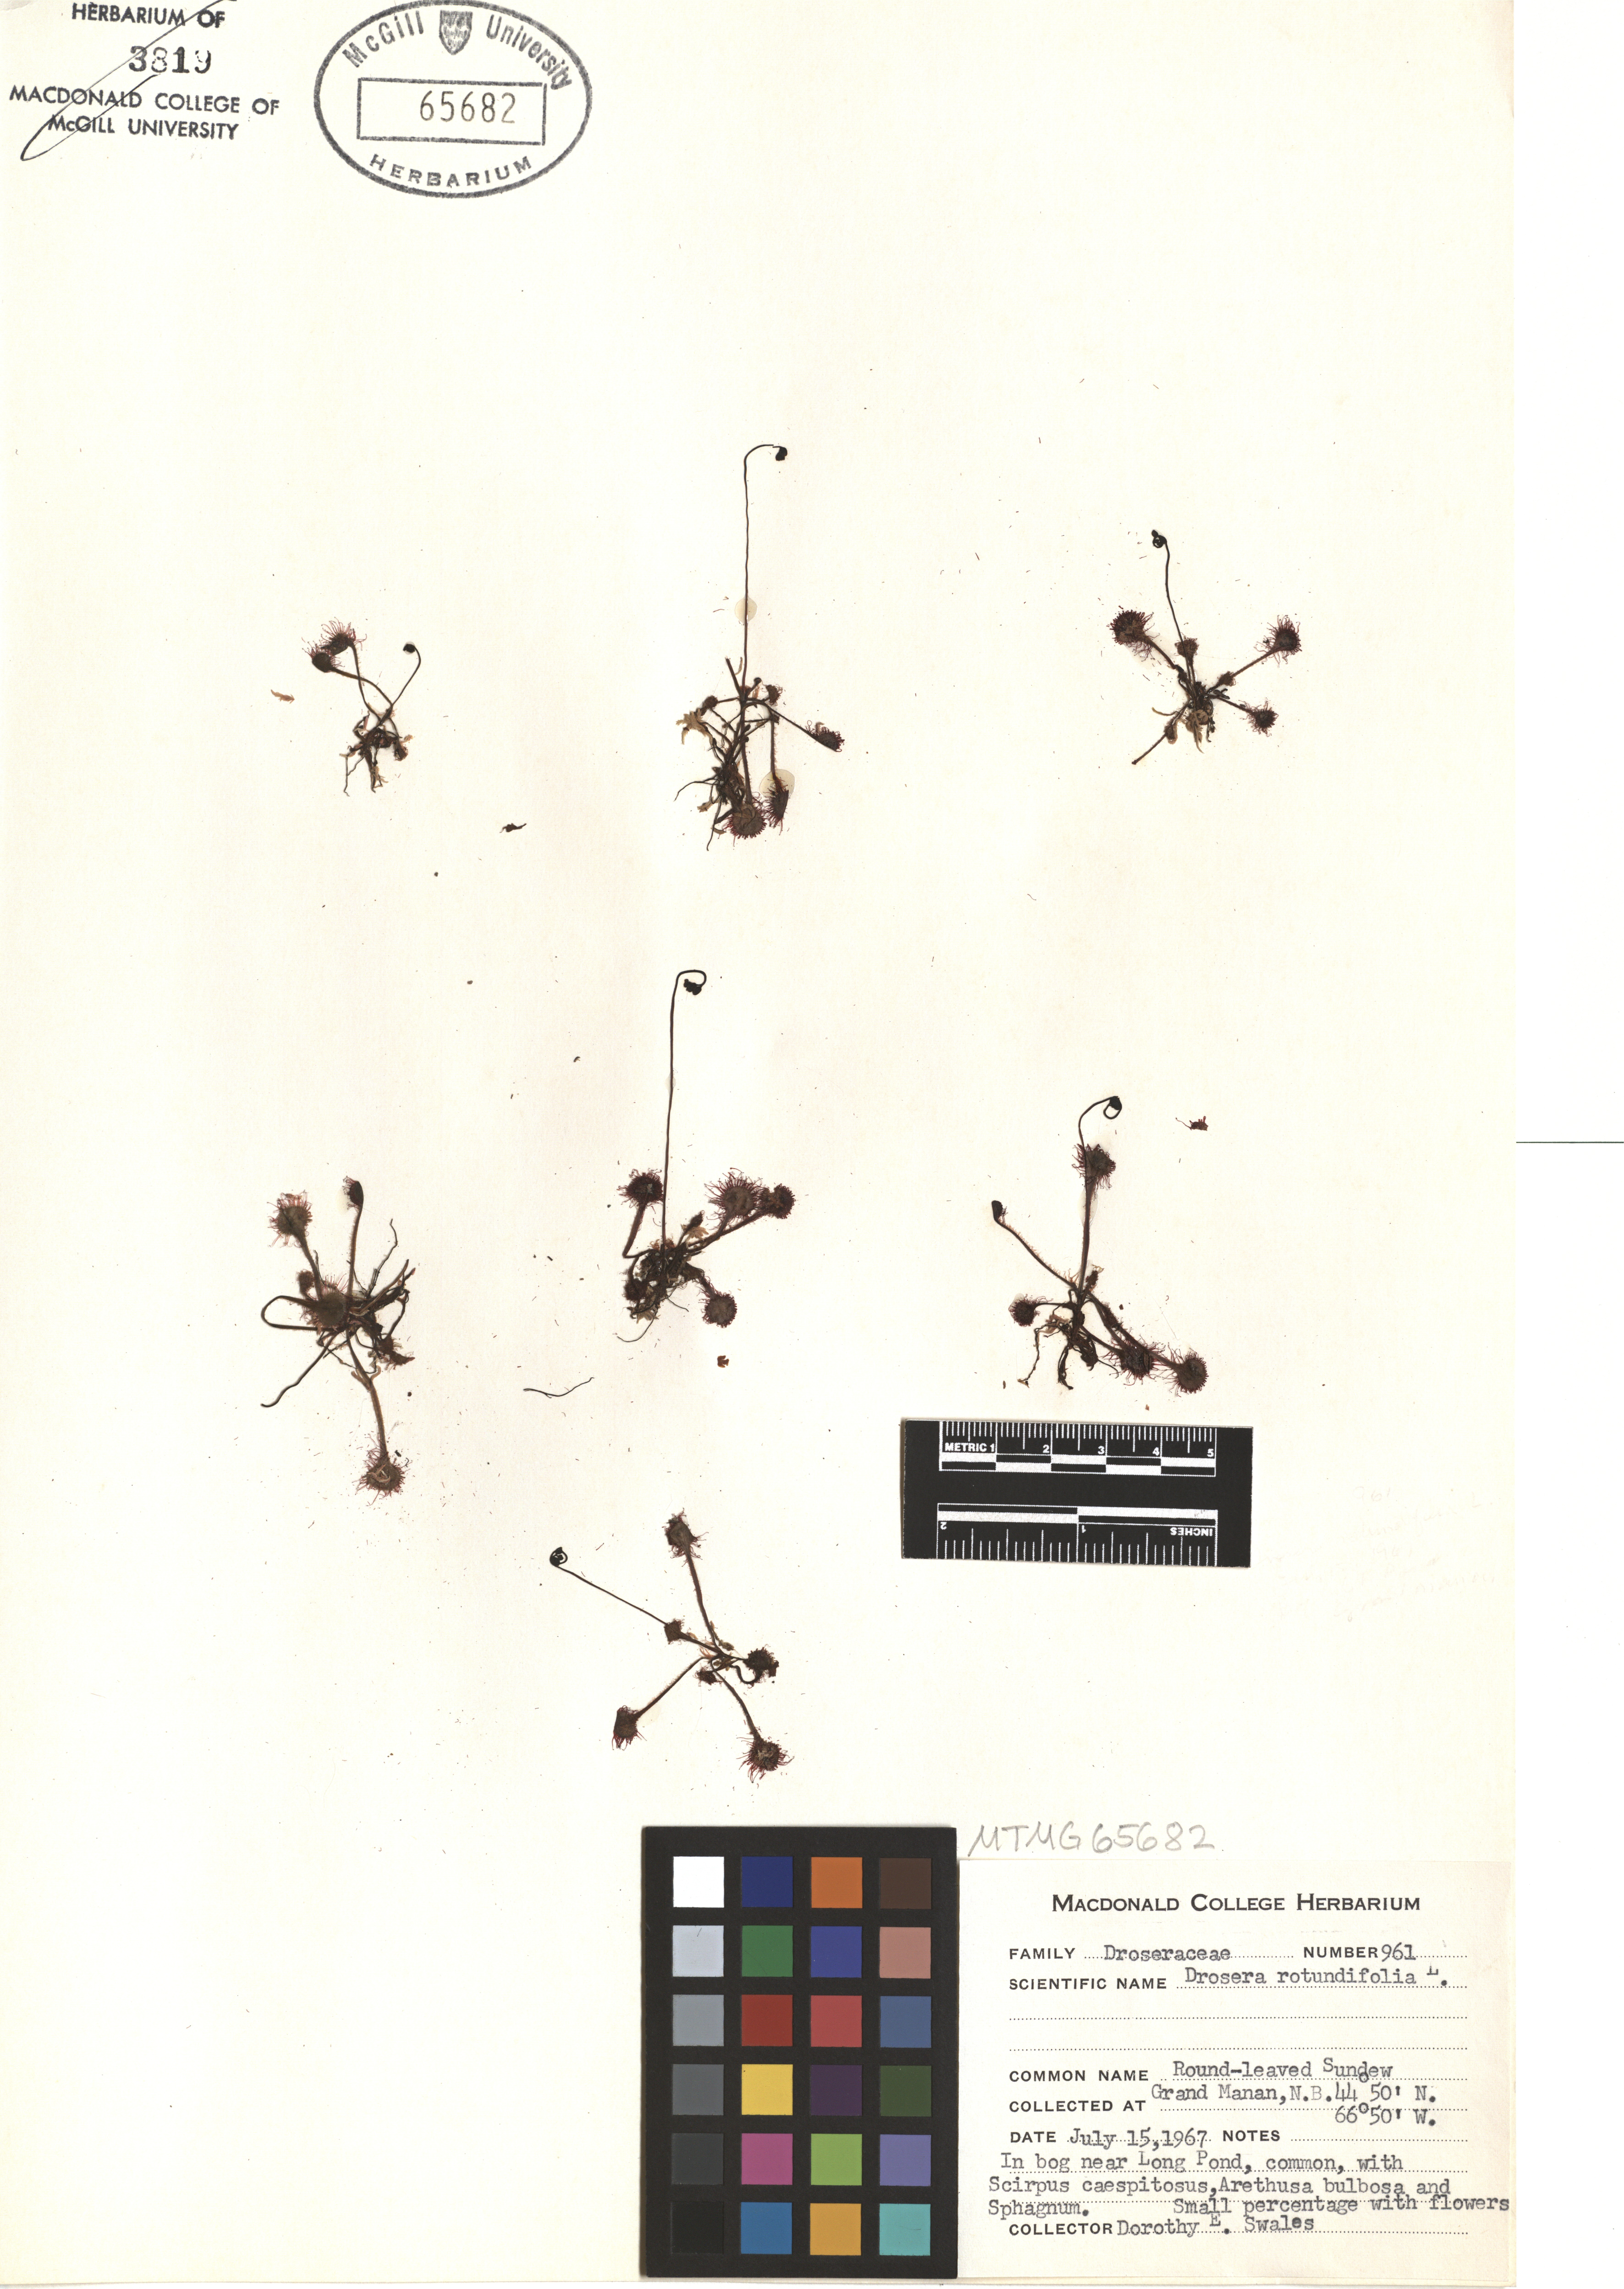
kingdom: Plantae
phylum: Tracheophyta
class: Magnoliopsida
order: Caryophyllales
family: Droseraceae
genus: Drosera
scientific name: Drosera rotundifolia
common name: Round-leaved sundew
